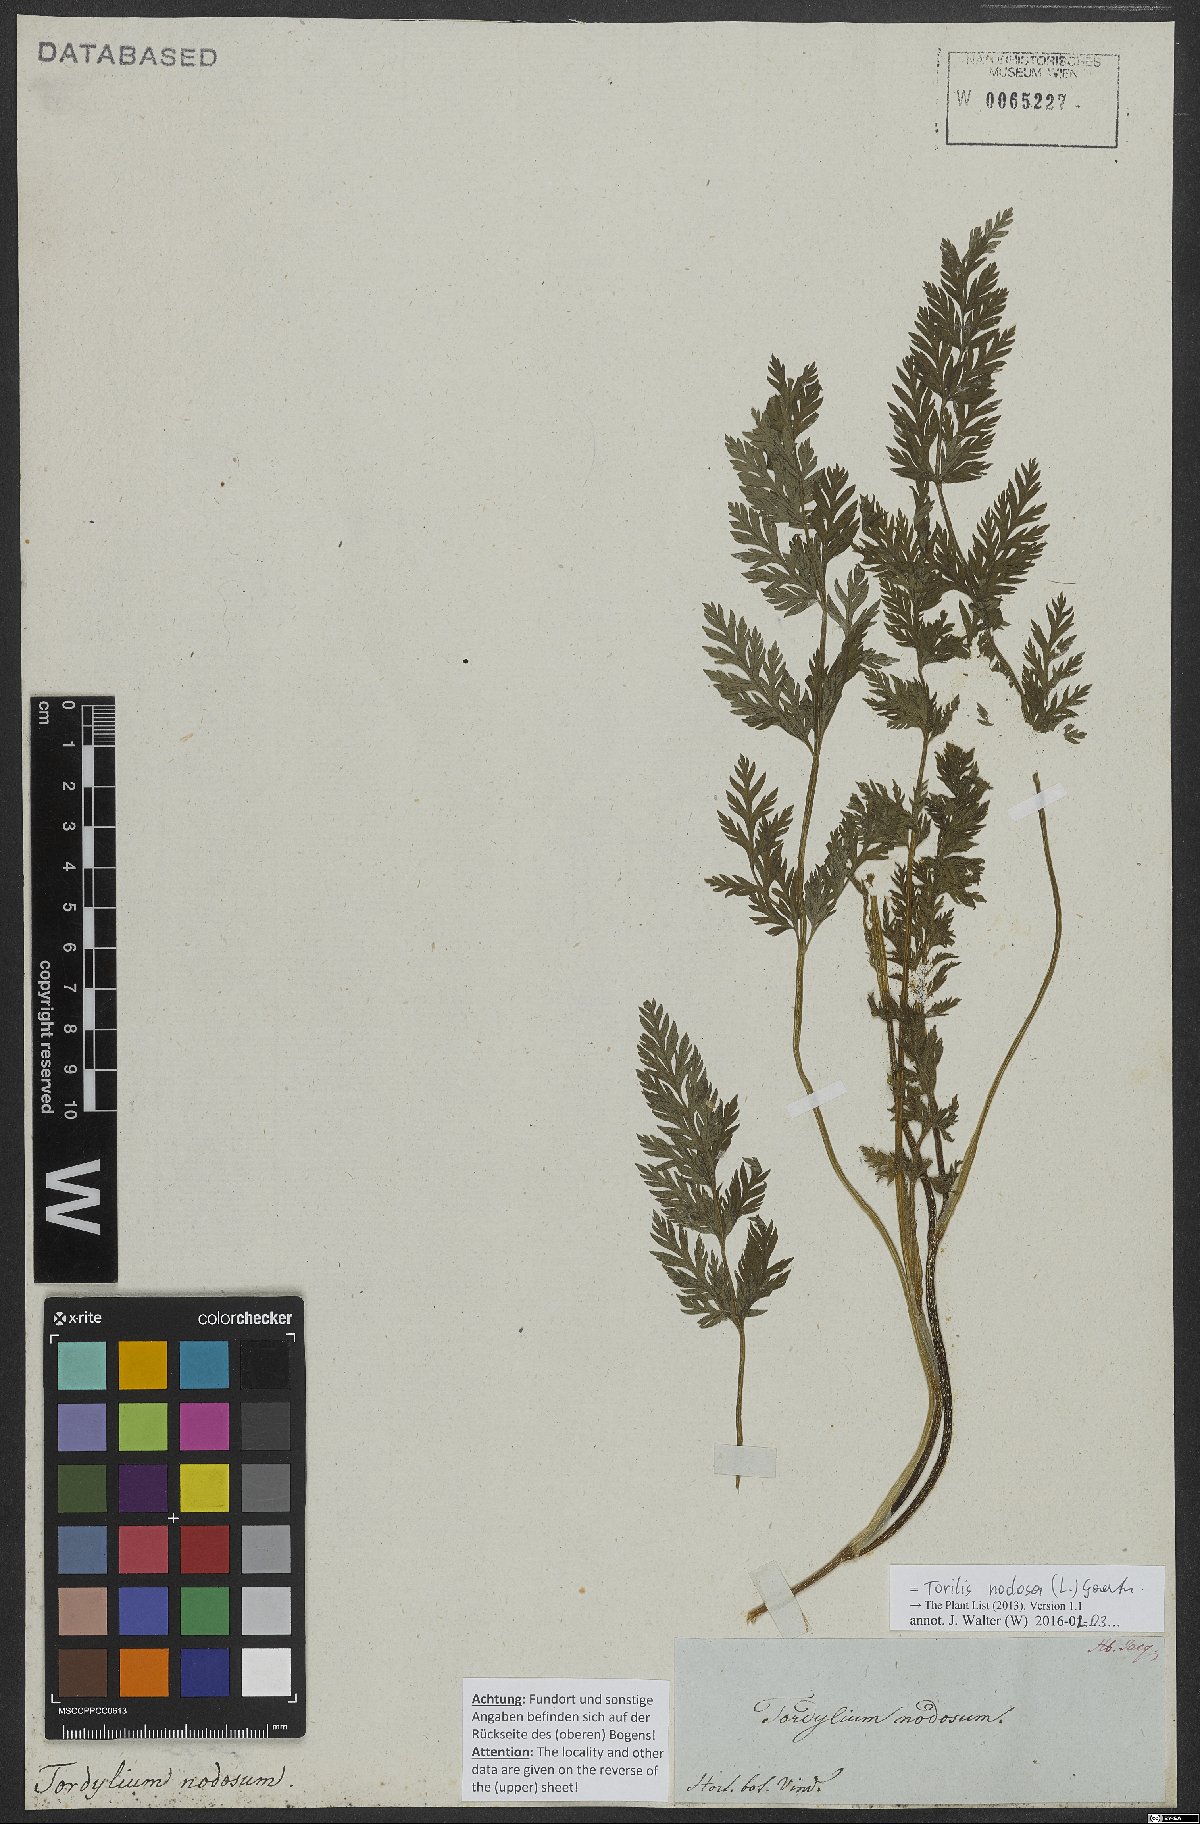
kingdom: Plantae
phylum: Tracheophyta
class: Magnoliopsida
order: Apiales
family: Apiaceae
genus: Torilis
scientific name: Torilis nodosa
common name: Knotted hedge-parsley
